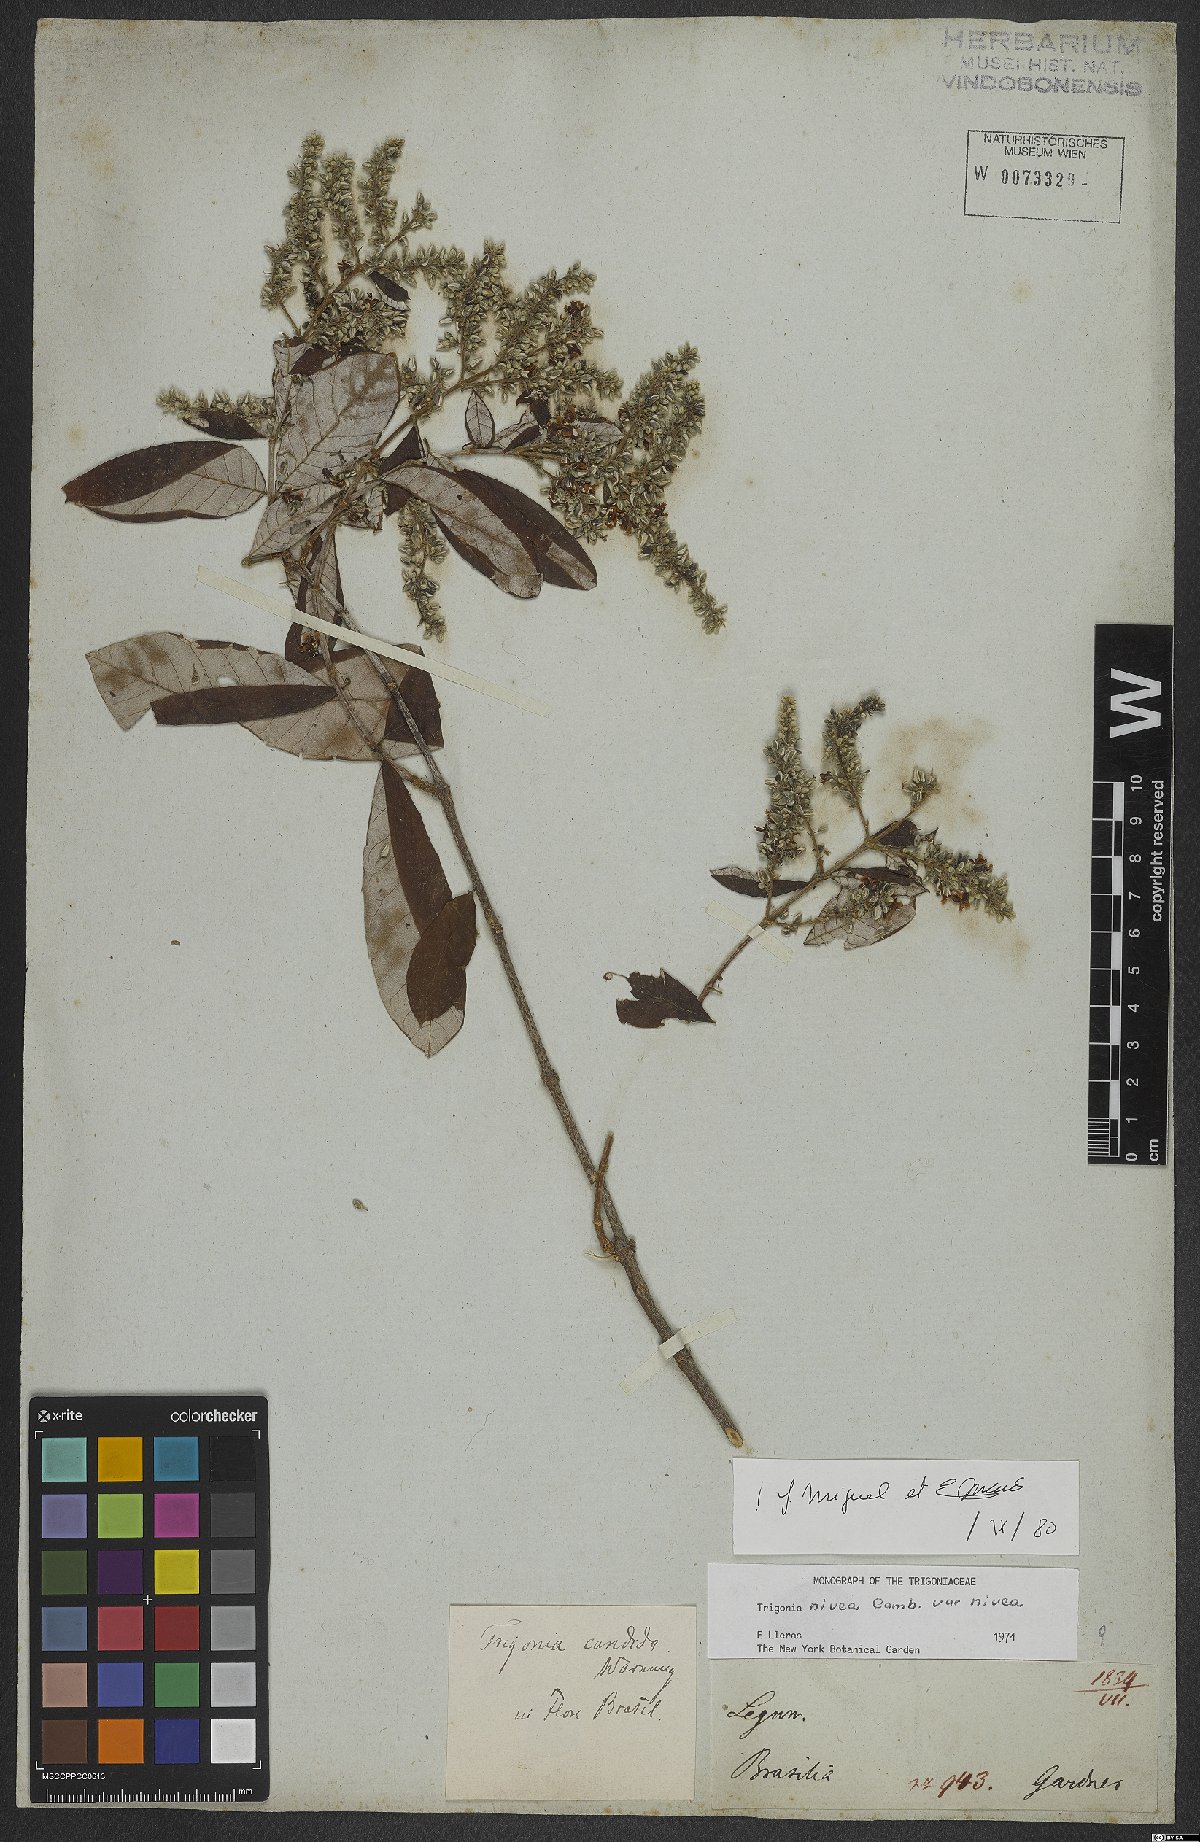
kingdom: Plantae
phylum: Tracheophyta
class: Magnoliopsida
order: Malpighiales
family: Trigoniaceae
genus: Trigonia
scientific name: Trigonia nivea
